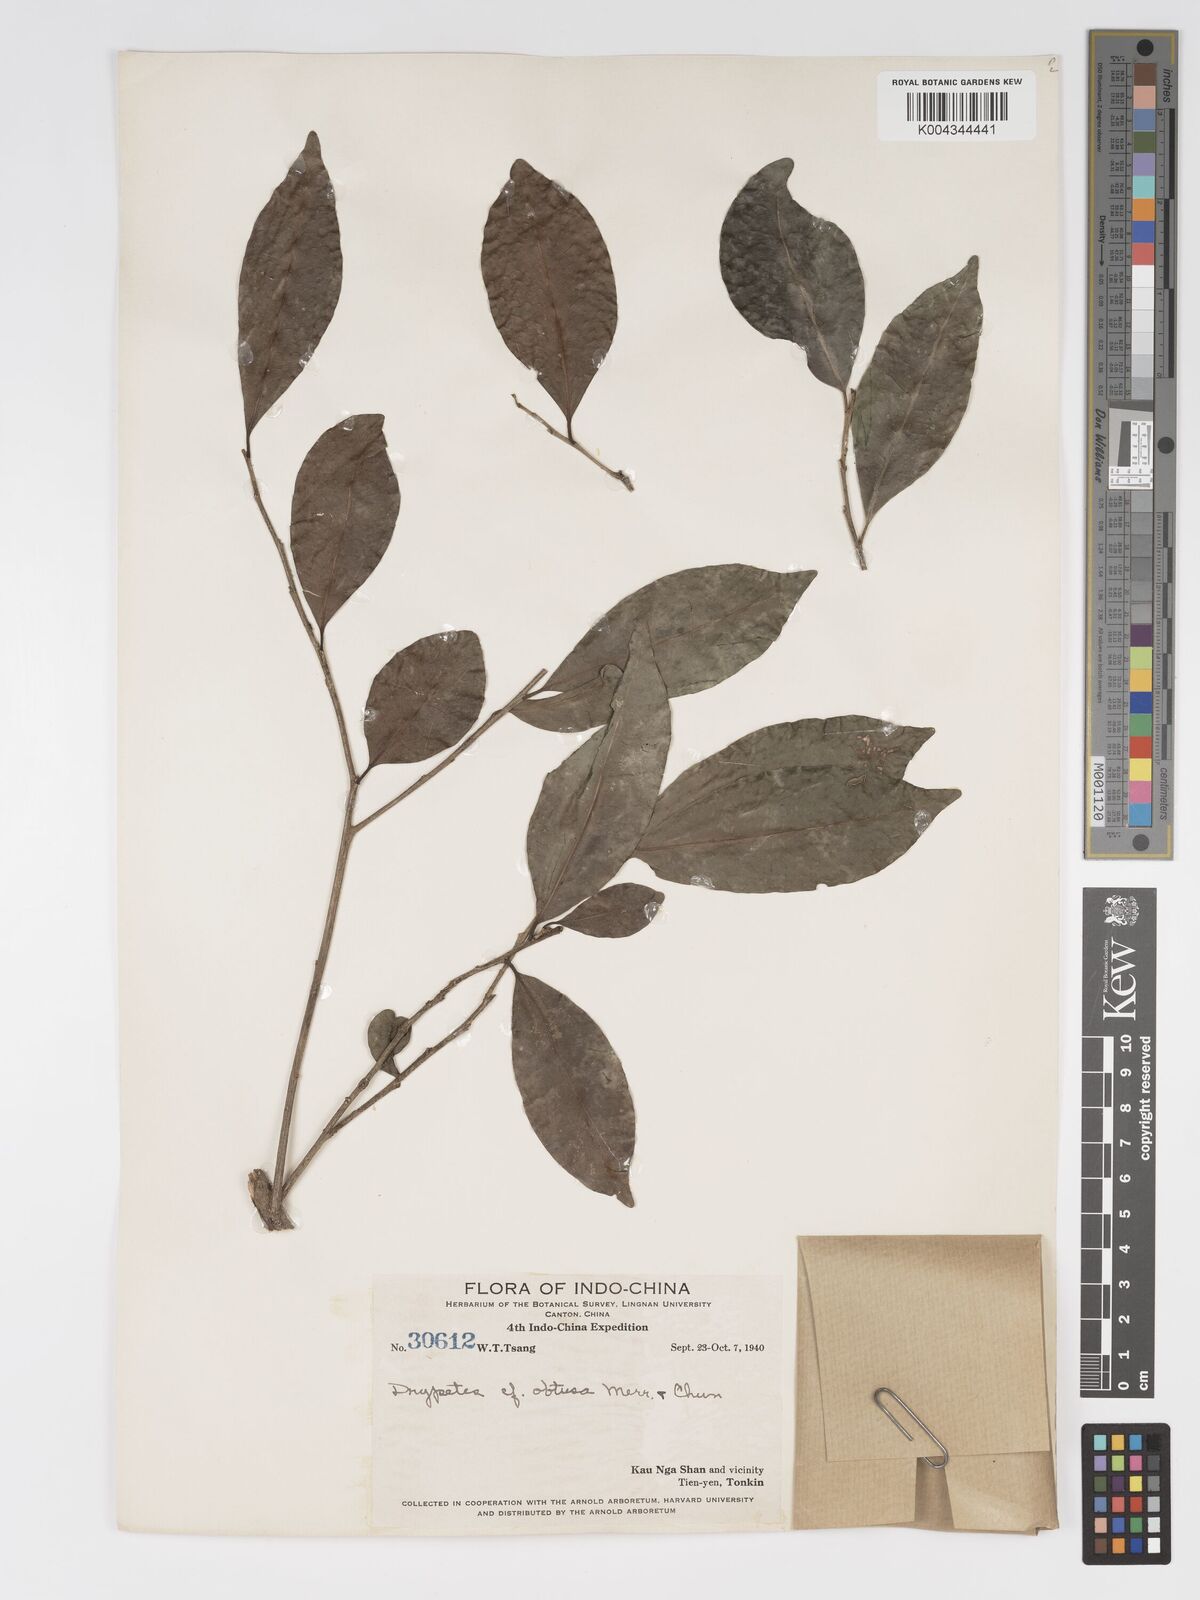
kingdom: Plantae
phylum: Tracheophyta
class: Magnoliopsida
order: Malpighiales
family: Putranjivaceae
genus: Drypetes
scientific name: Drypetes obtusa
